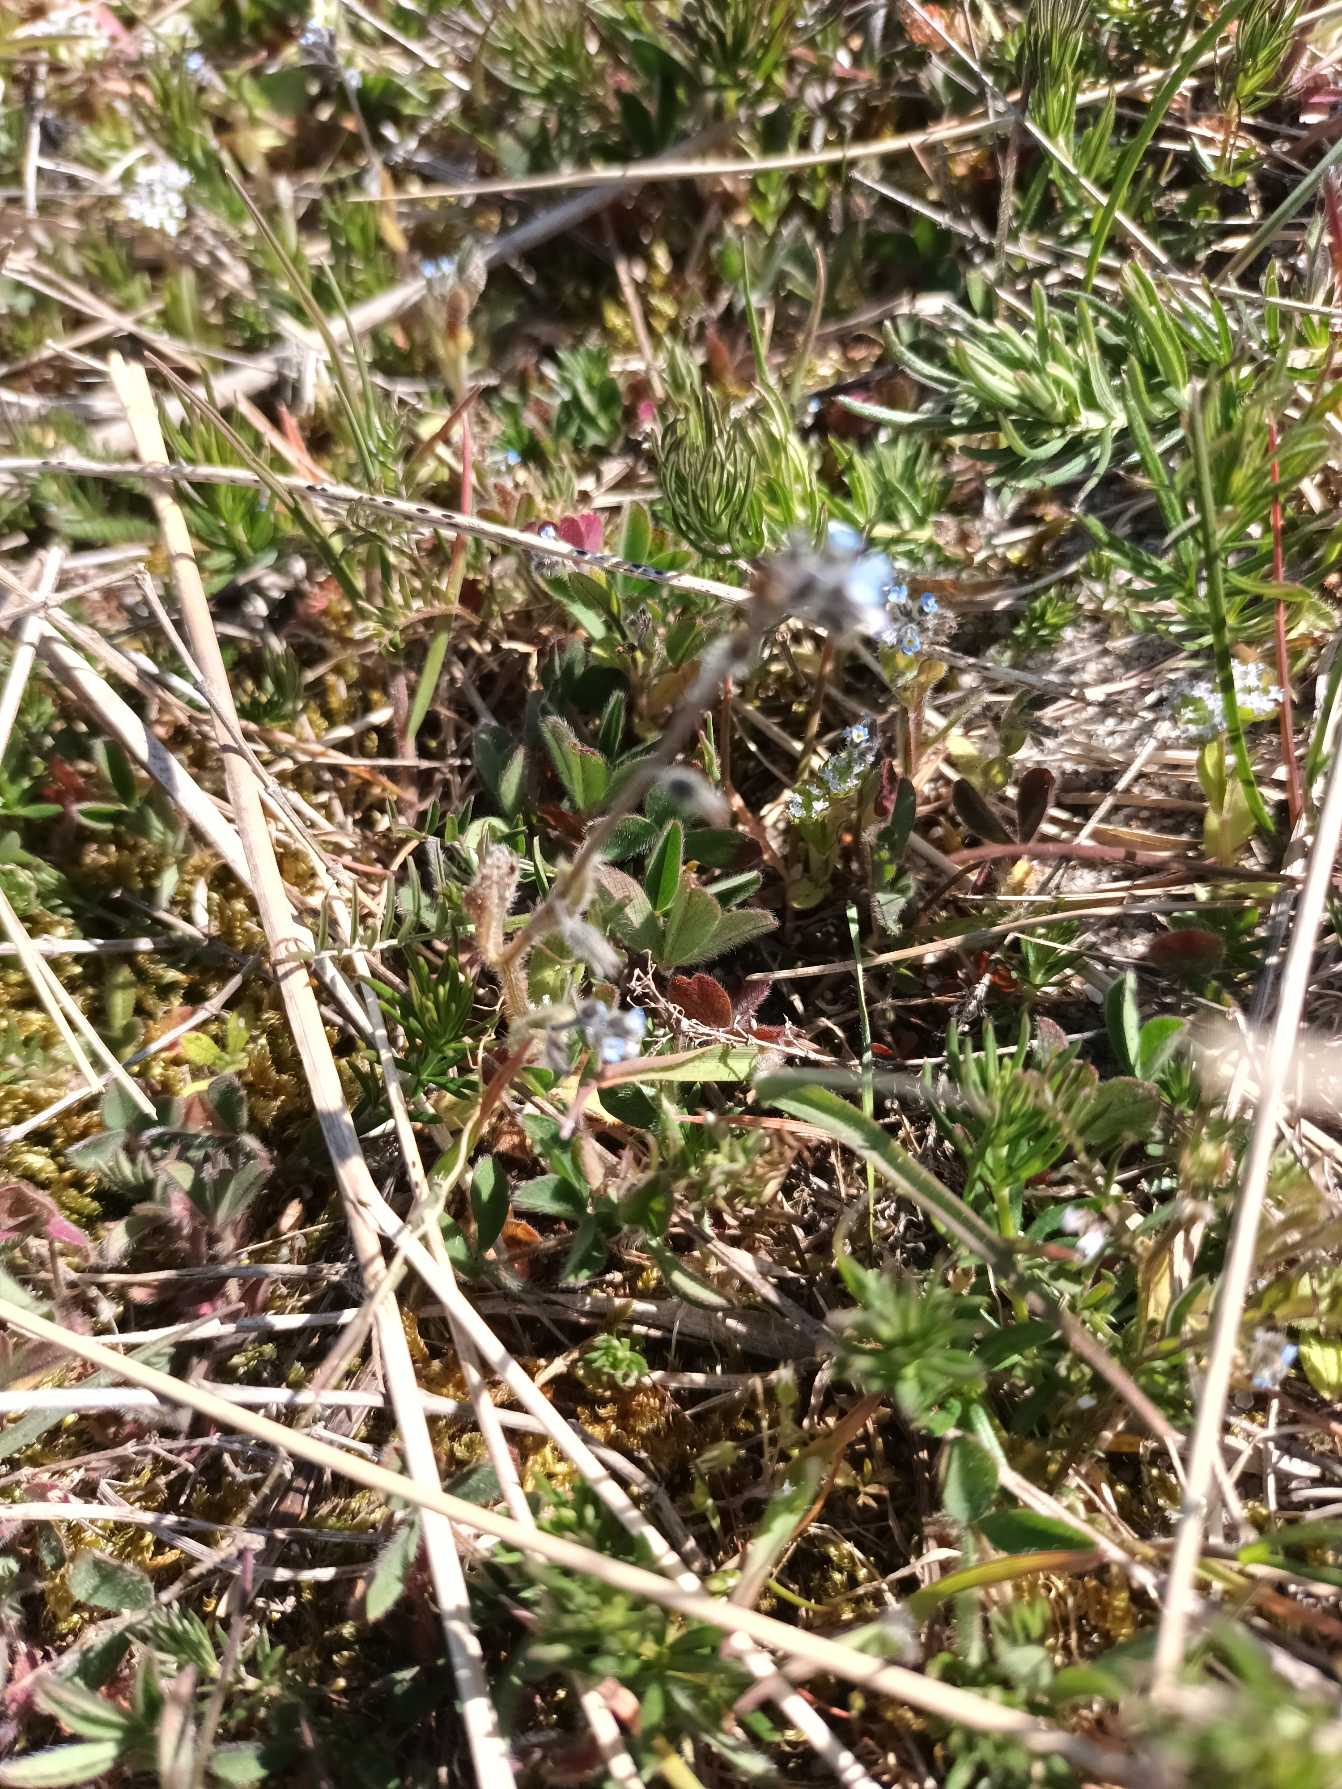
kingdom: Plantae
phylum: Tracheophyta
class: Magnoliopsida
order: Boraginales
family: Boraginaceae
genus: Myosotis
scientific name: Myosotis ramosissima
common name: Bakke-forglemmigej
